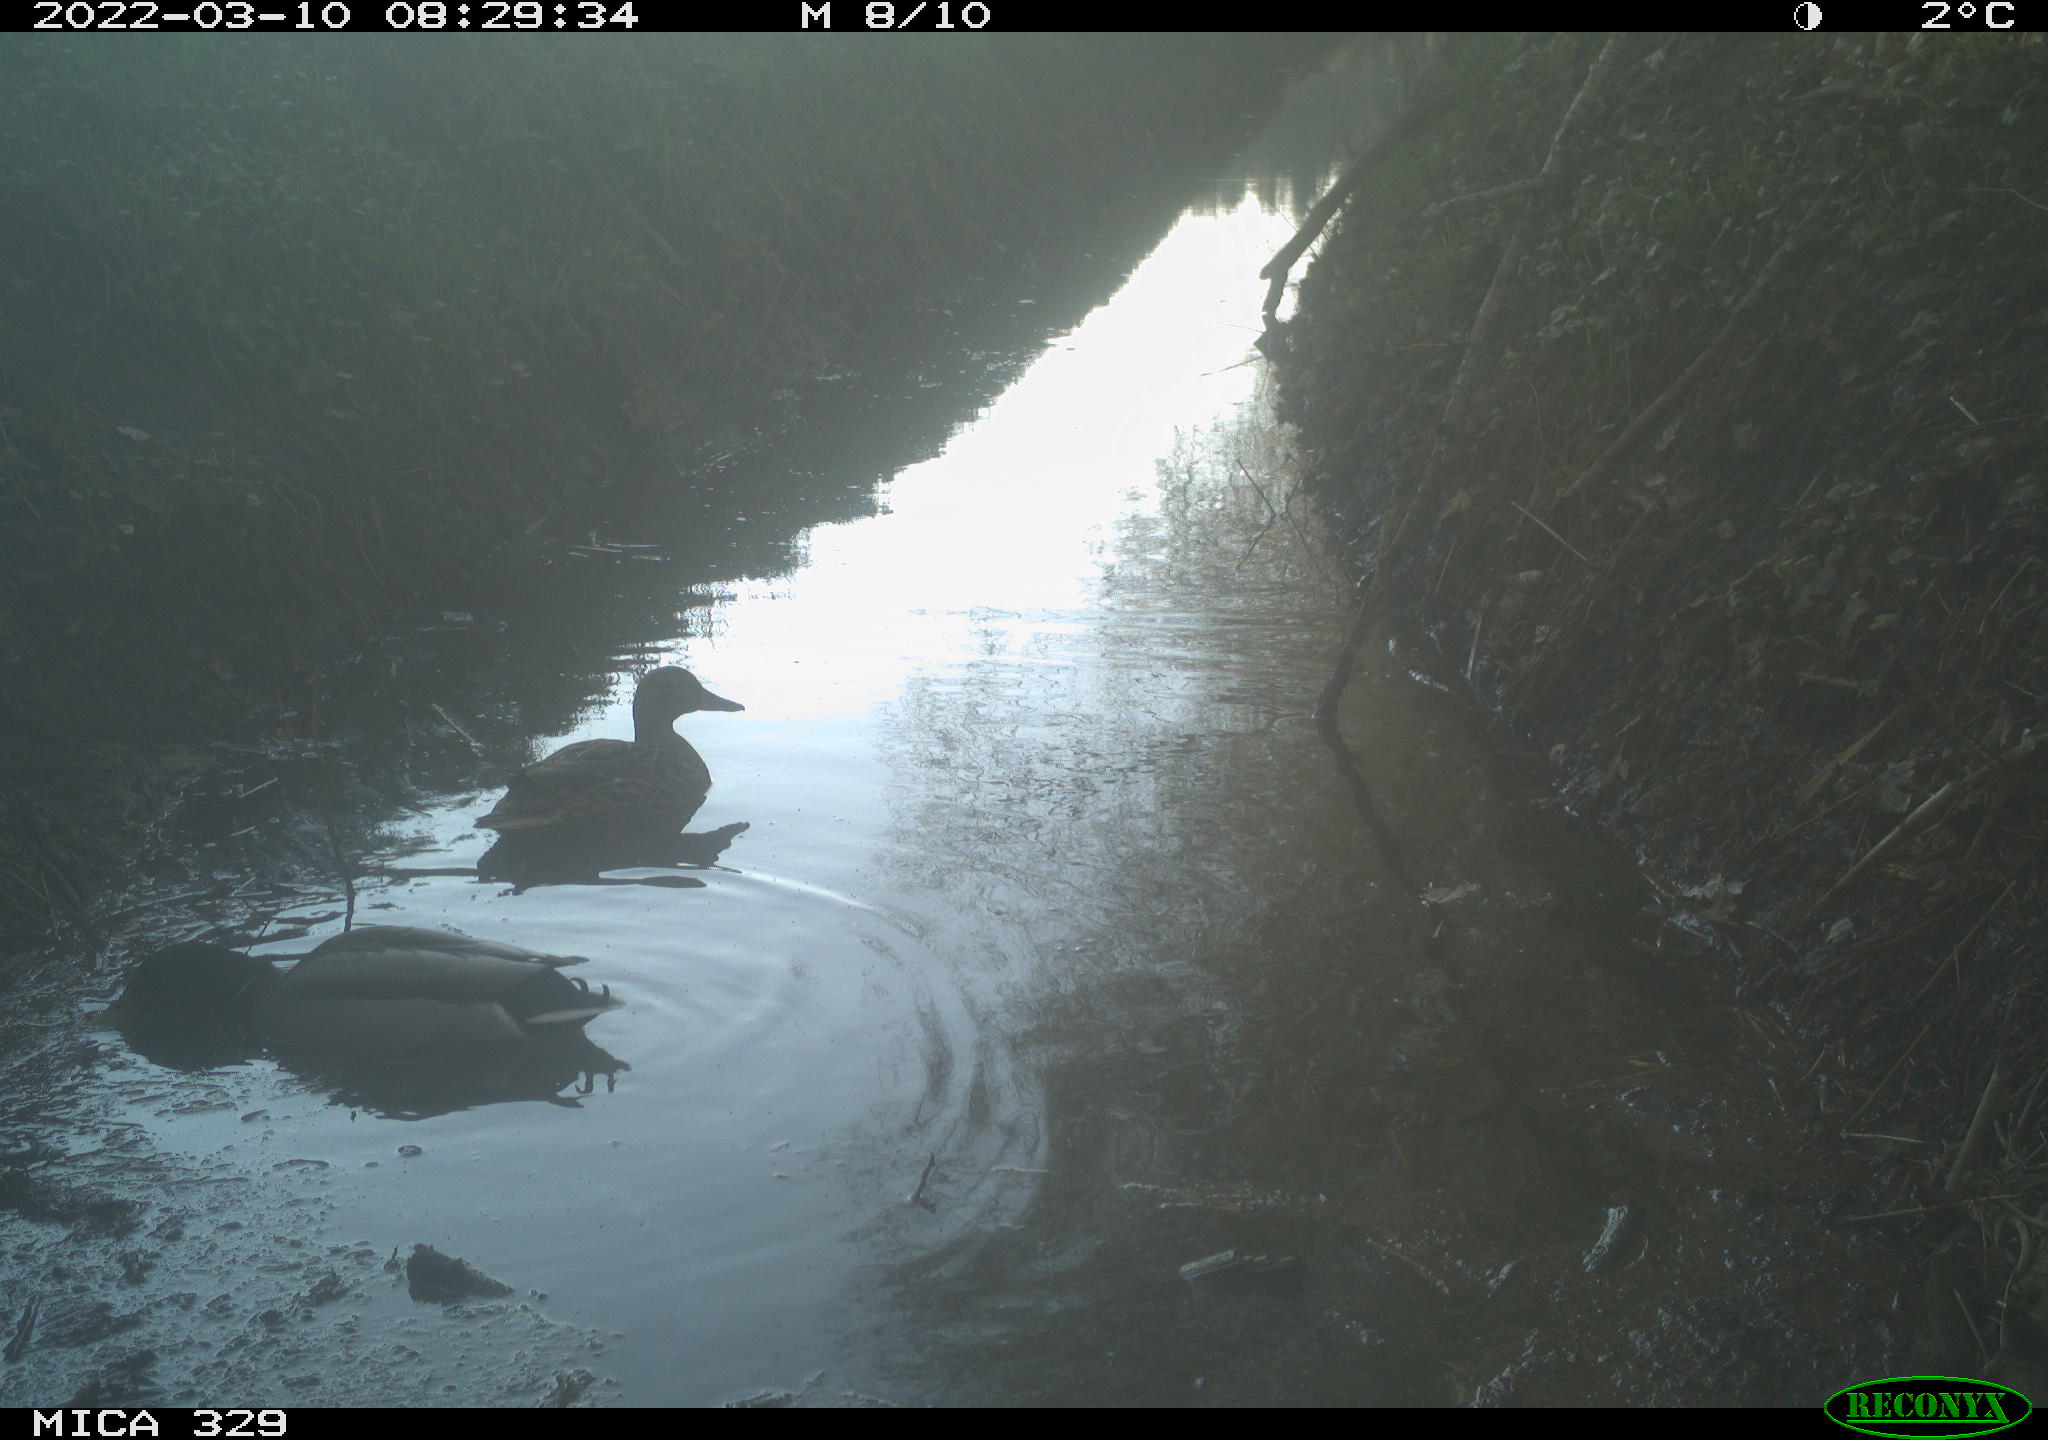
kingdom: Animalia
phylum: Chordata
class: Aves
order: Anseriformes
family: Anatidae
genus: Anas
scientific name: Anas platyrhynchos
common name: Mallard
